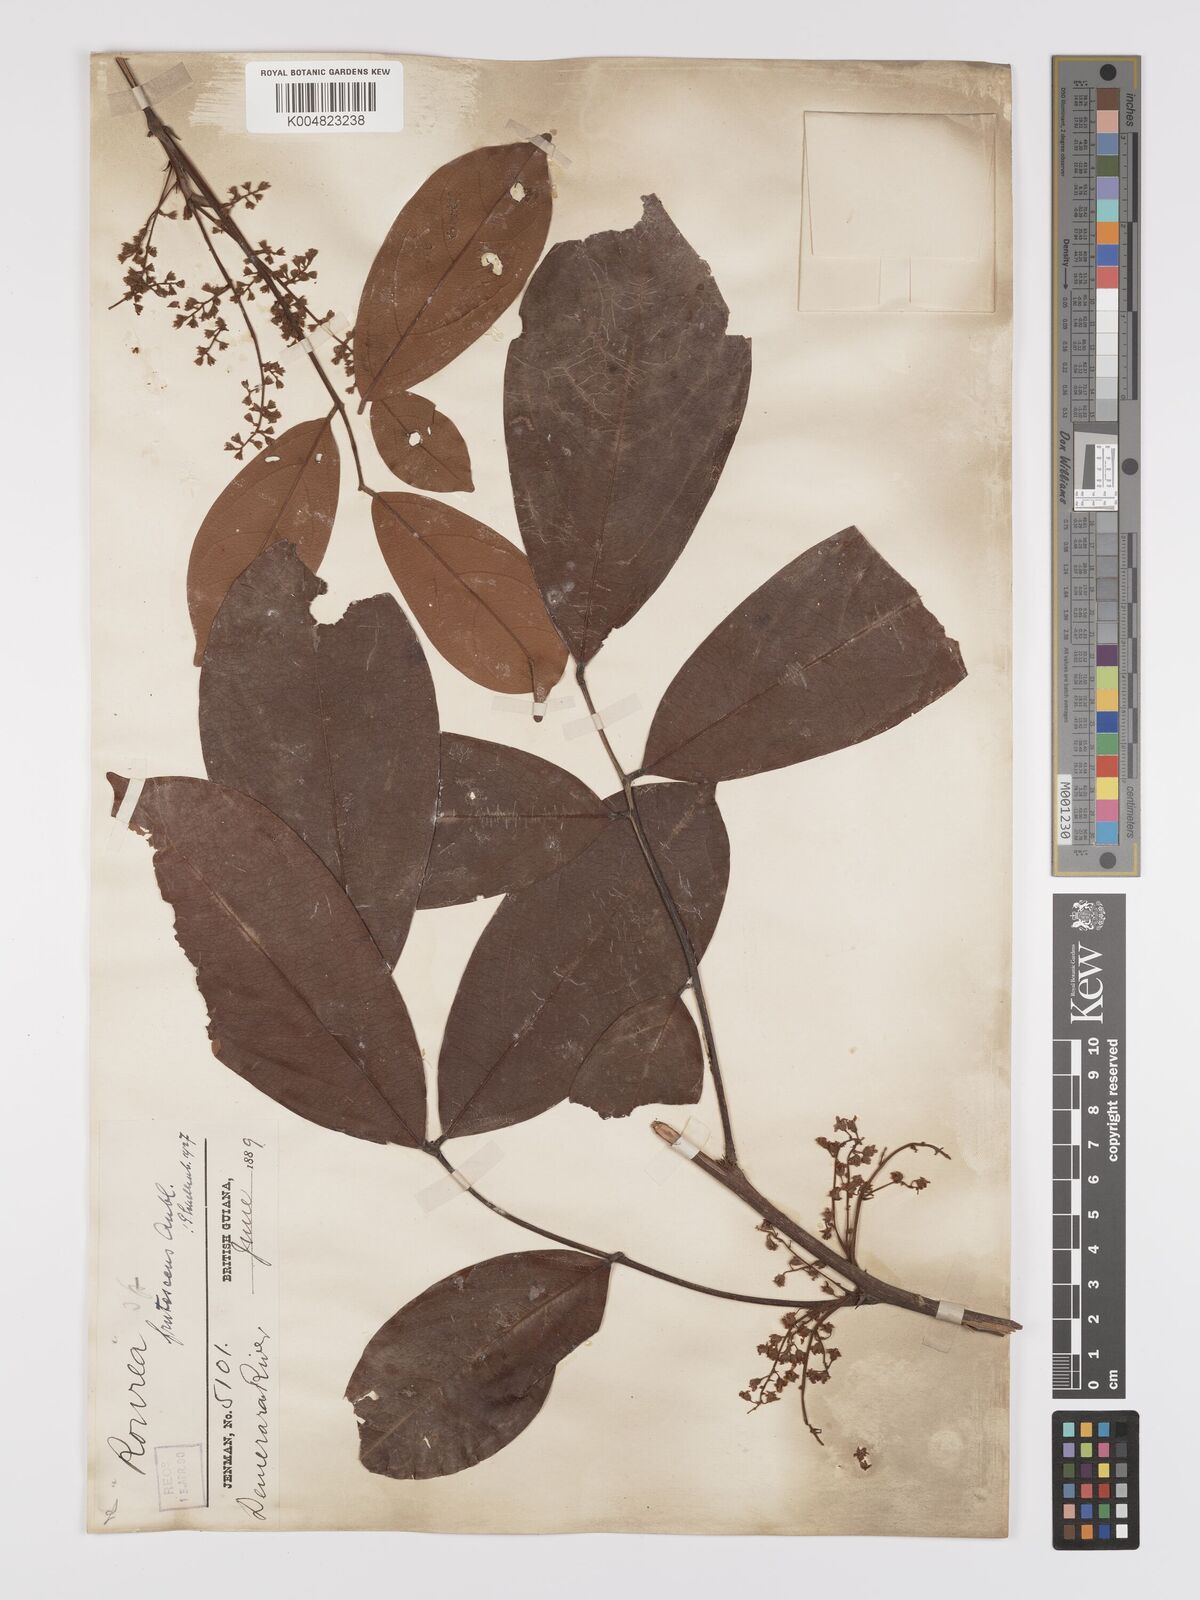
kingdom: Plantae
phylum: Tracheophyta
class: Magnoliopsida
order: Oxalidales
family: Connaraceae
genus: Rourea
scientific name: Rourea frutescens
